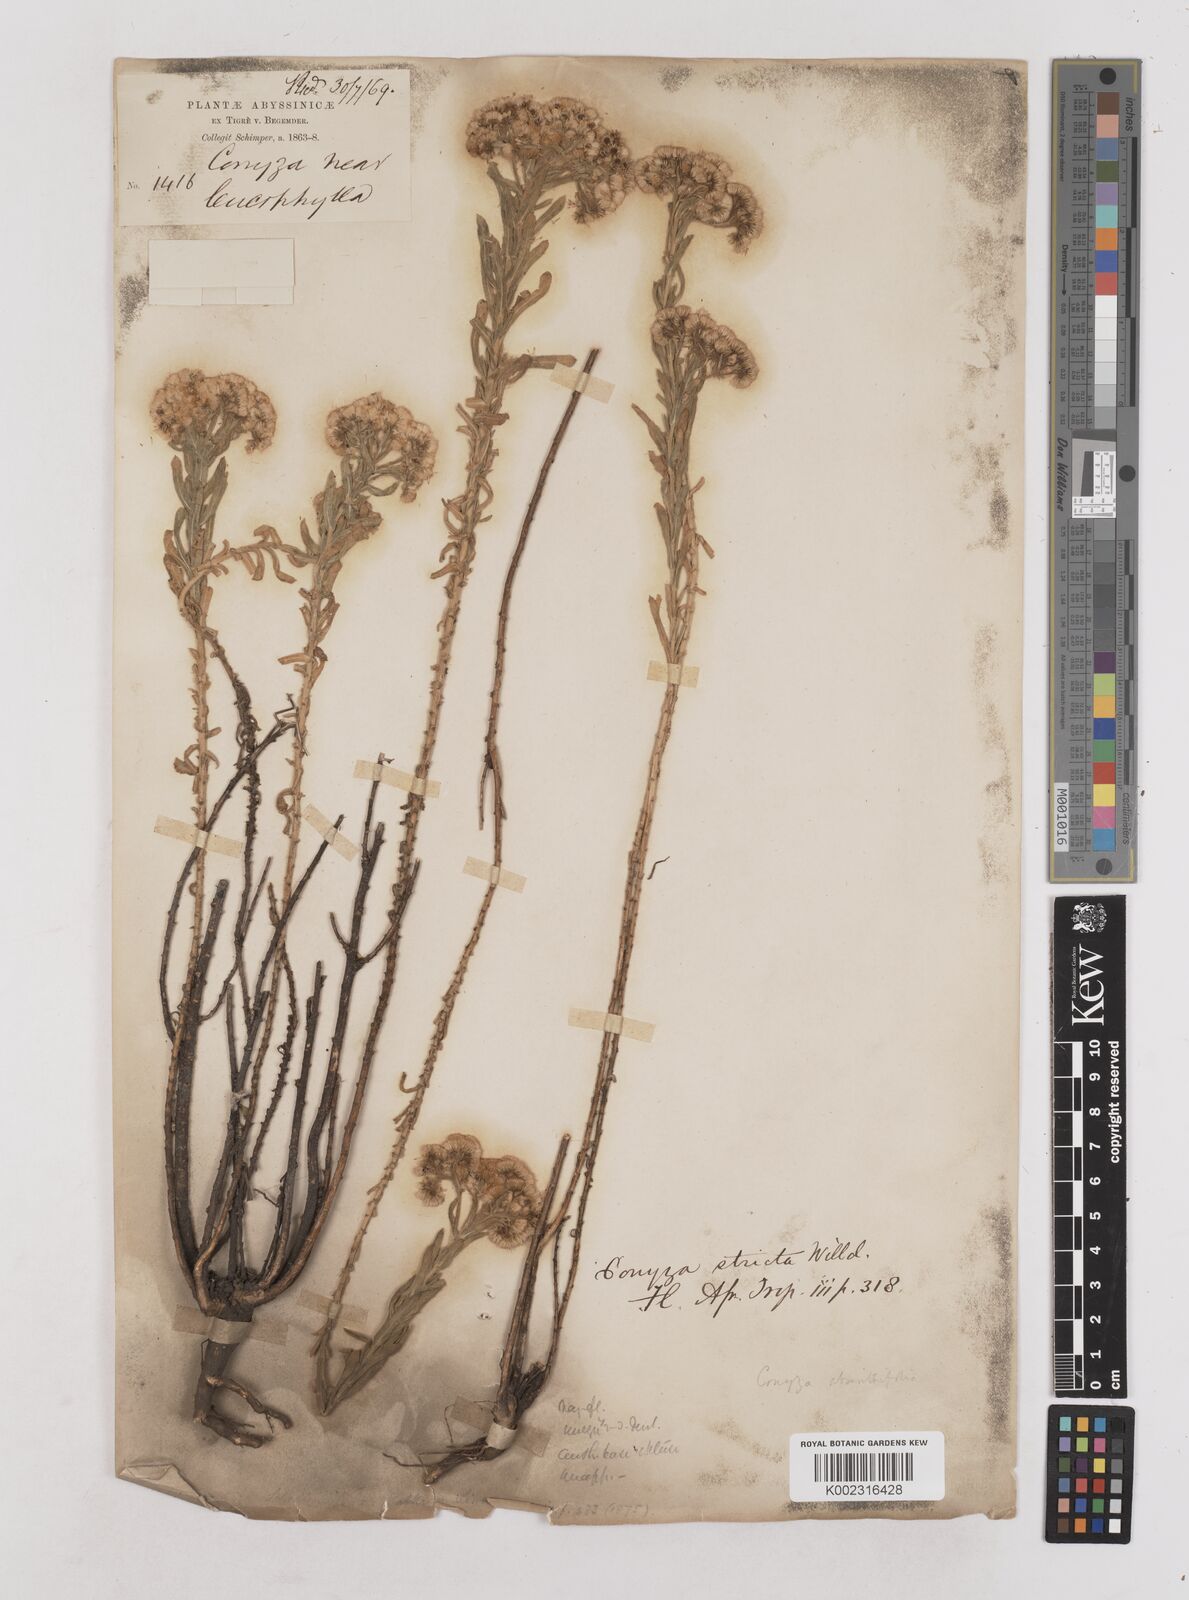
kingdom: Plantae
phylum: Tracheophyta
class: Magnoliopsida
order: Asterales
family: Asteraceae
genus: Nidorella
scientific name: Nidorella triloba
